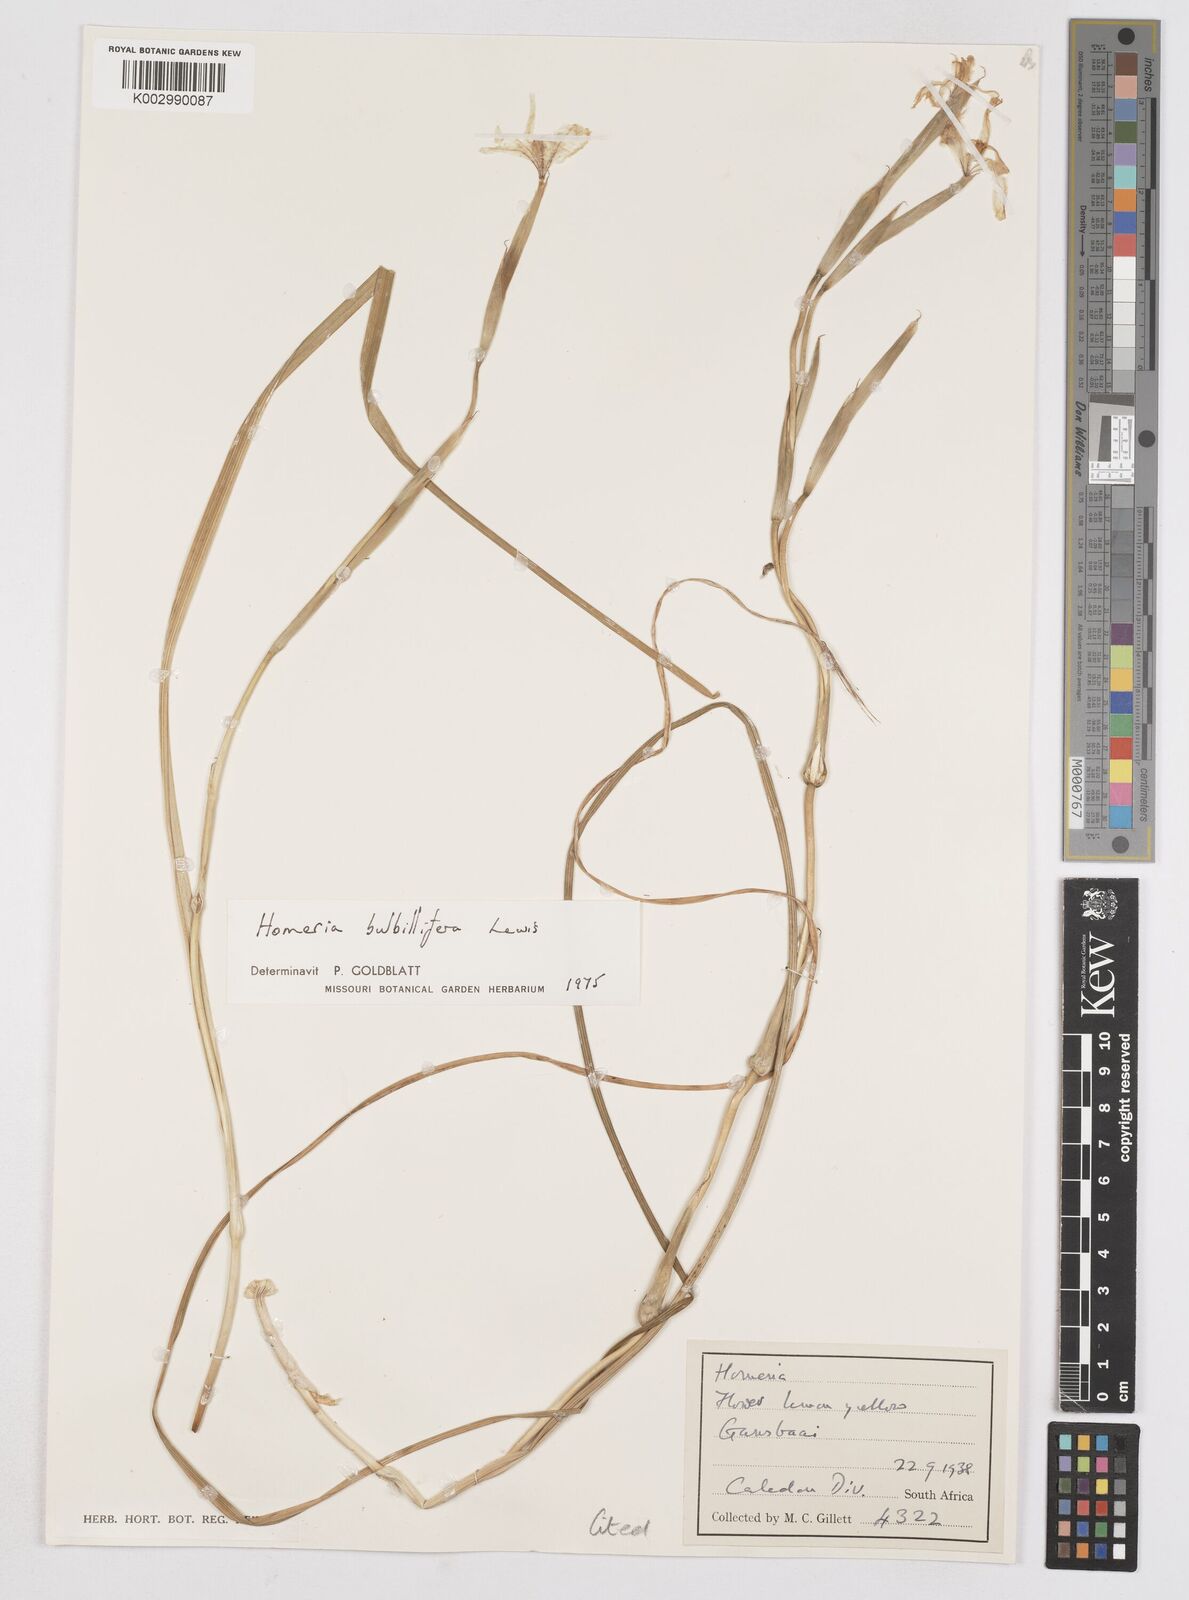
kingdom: Plantae
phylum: Tracheophyta
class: Liliopsida
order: Asparagales
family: Iridaceae
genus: Moraea
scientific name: Moraea bulbillifera
